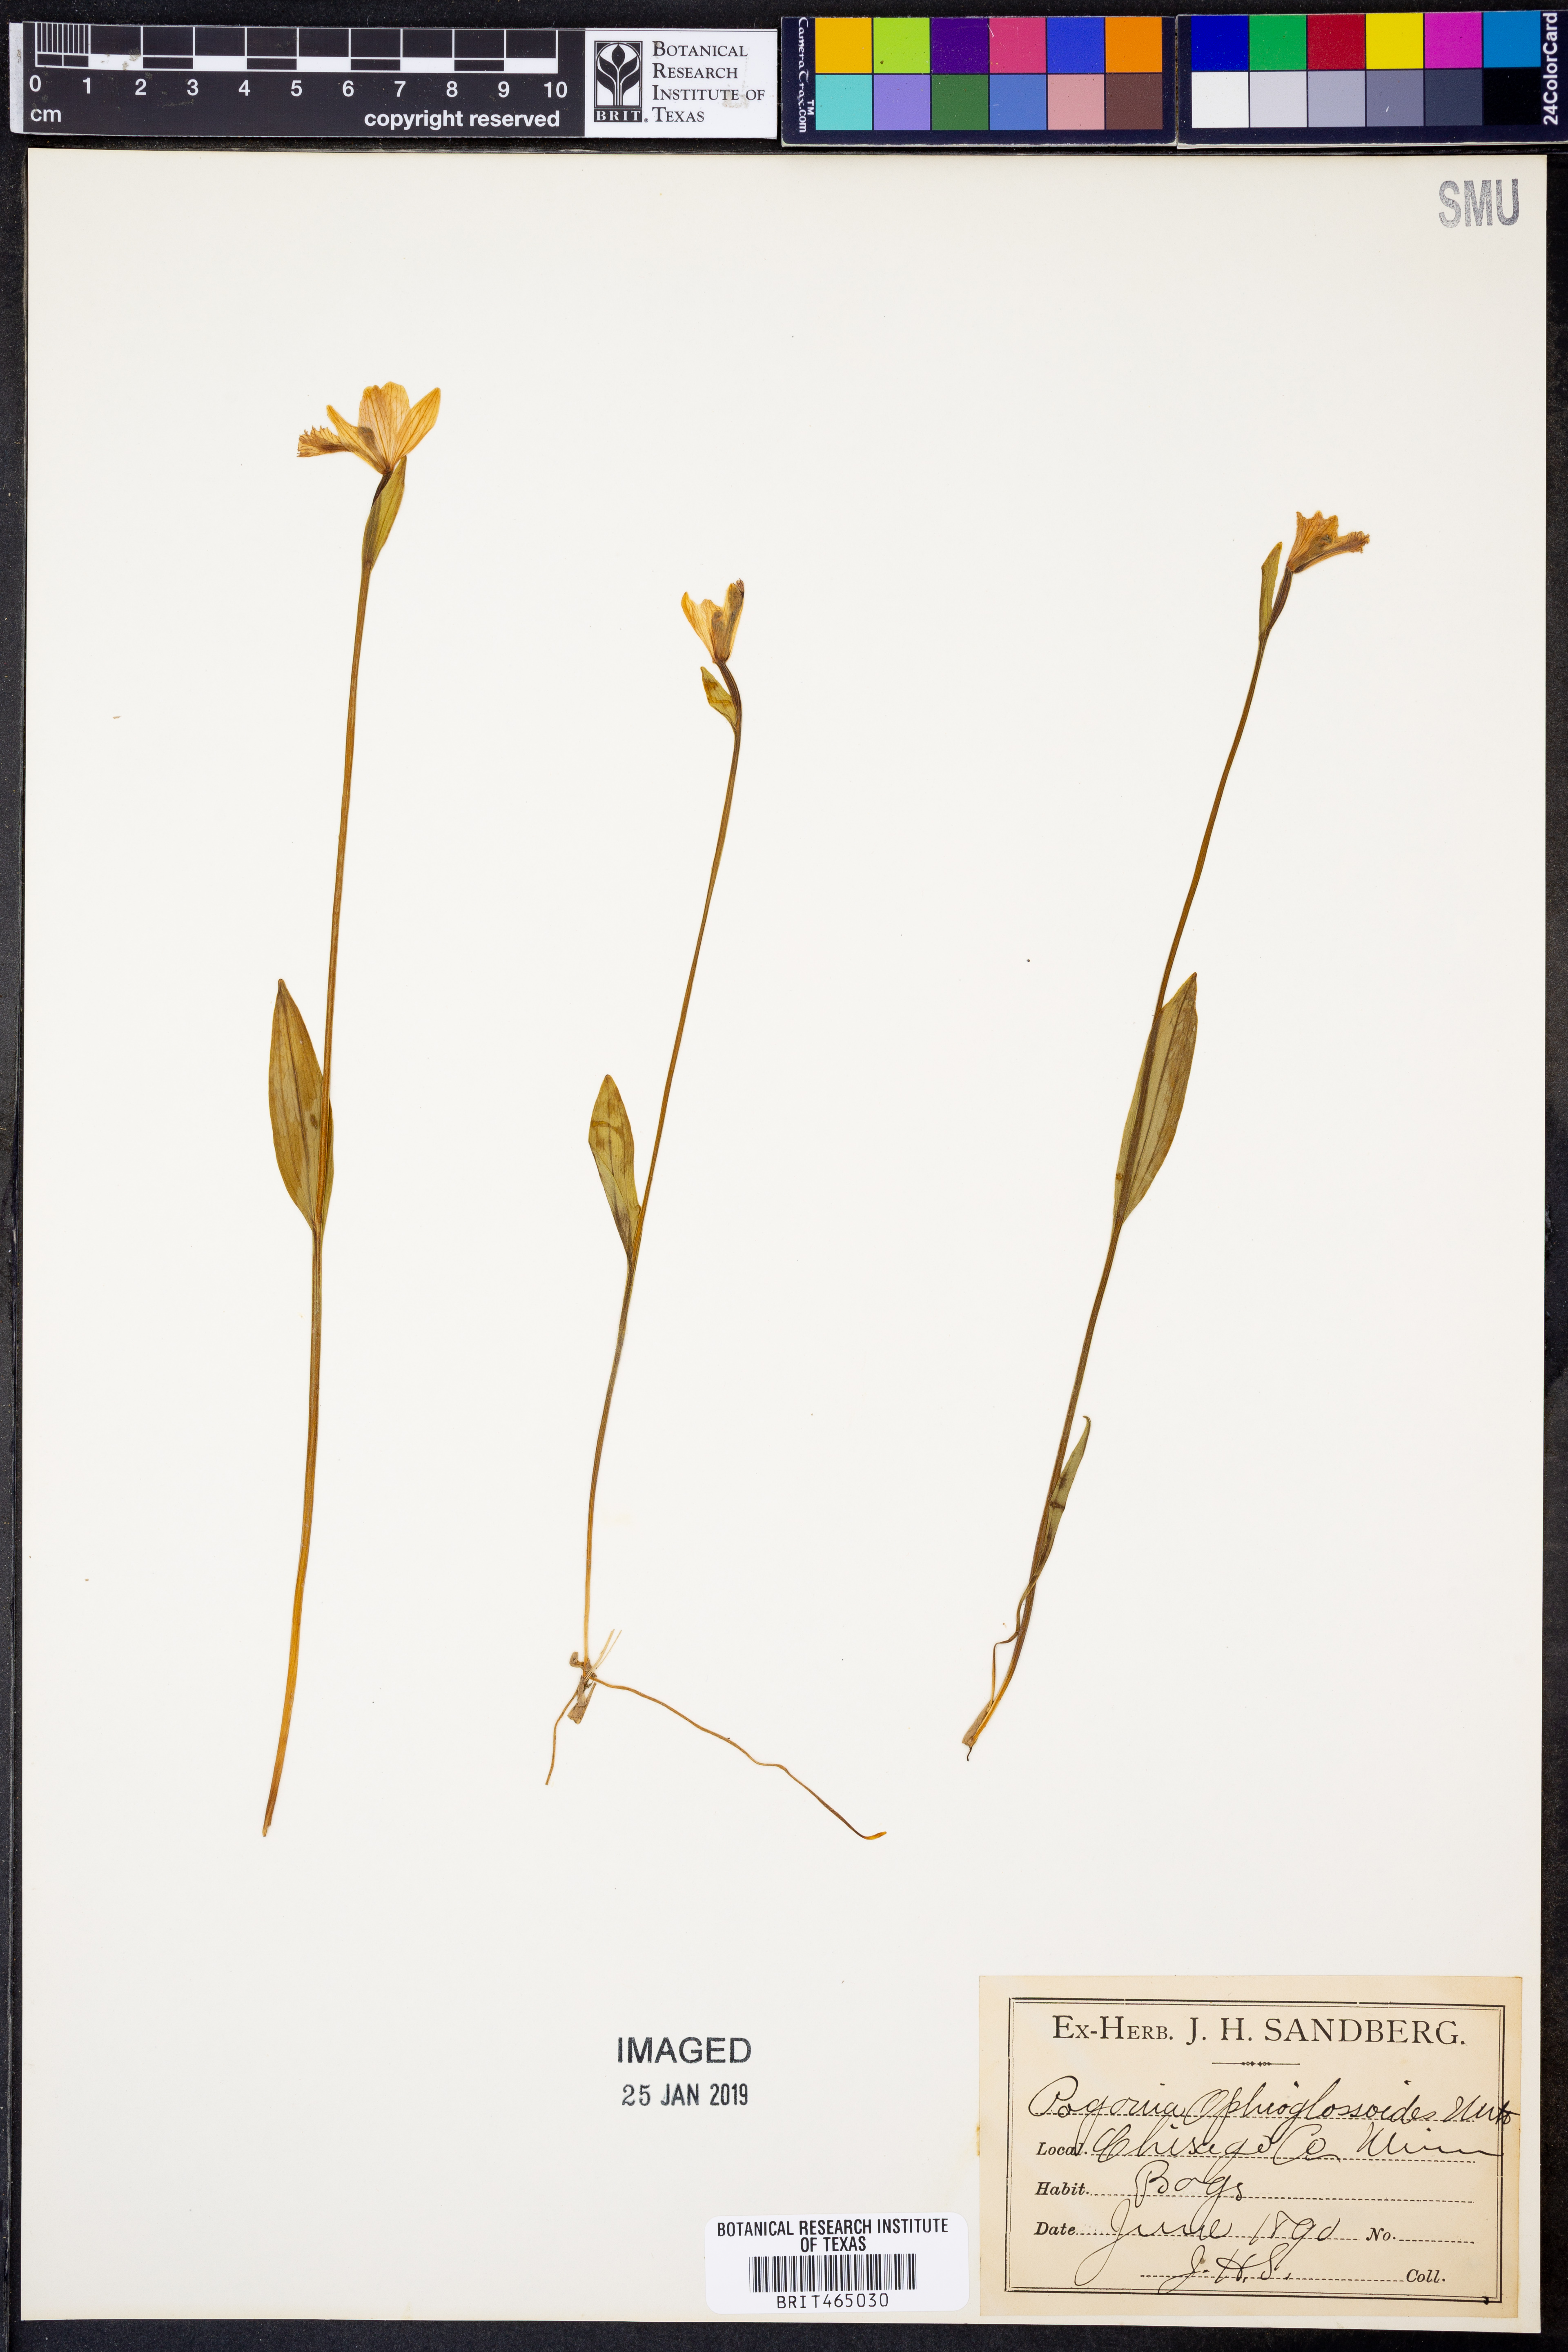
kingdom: Plantae
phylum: Tracheophyta
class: Liliopsida
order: Asparagales
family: Orchidaceae
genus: Pogonia
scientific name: Pogonia ophioglossoides
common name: Rose pogonia
